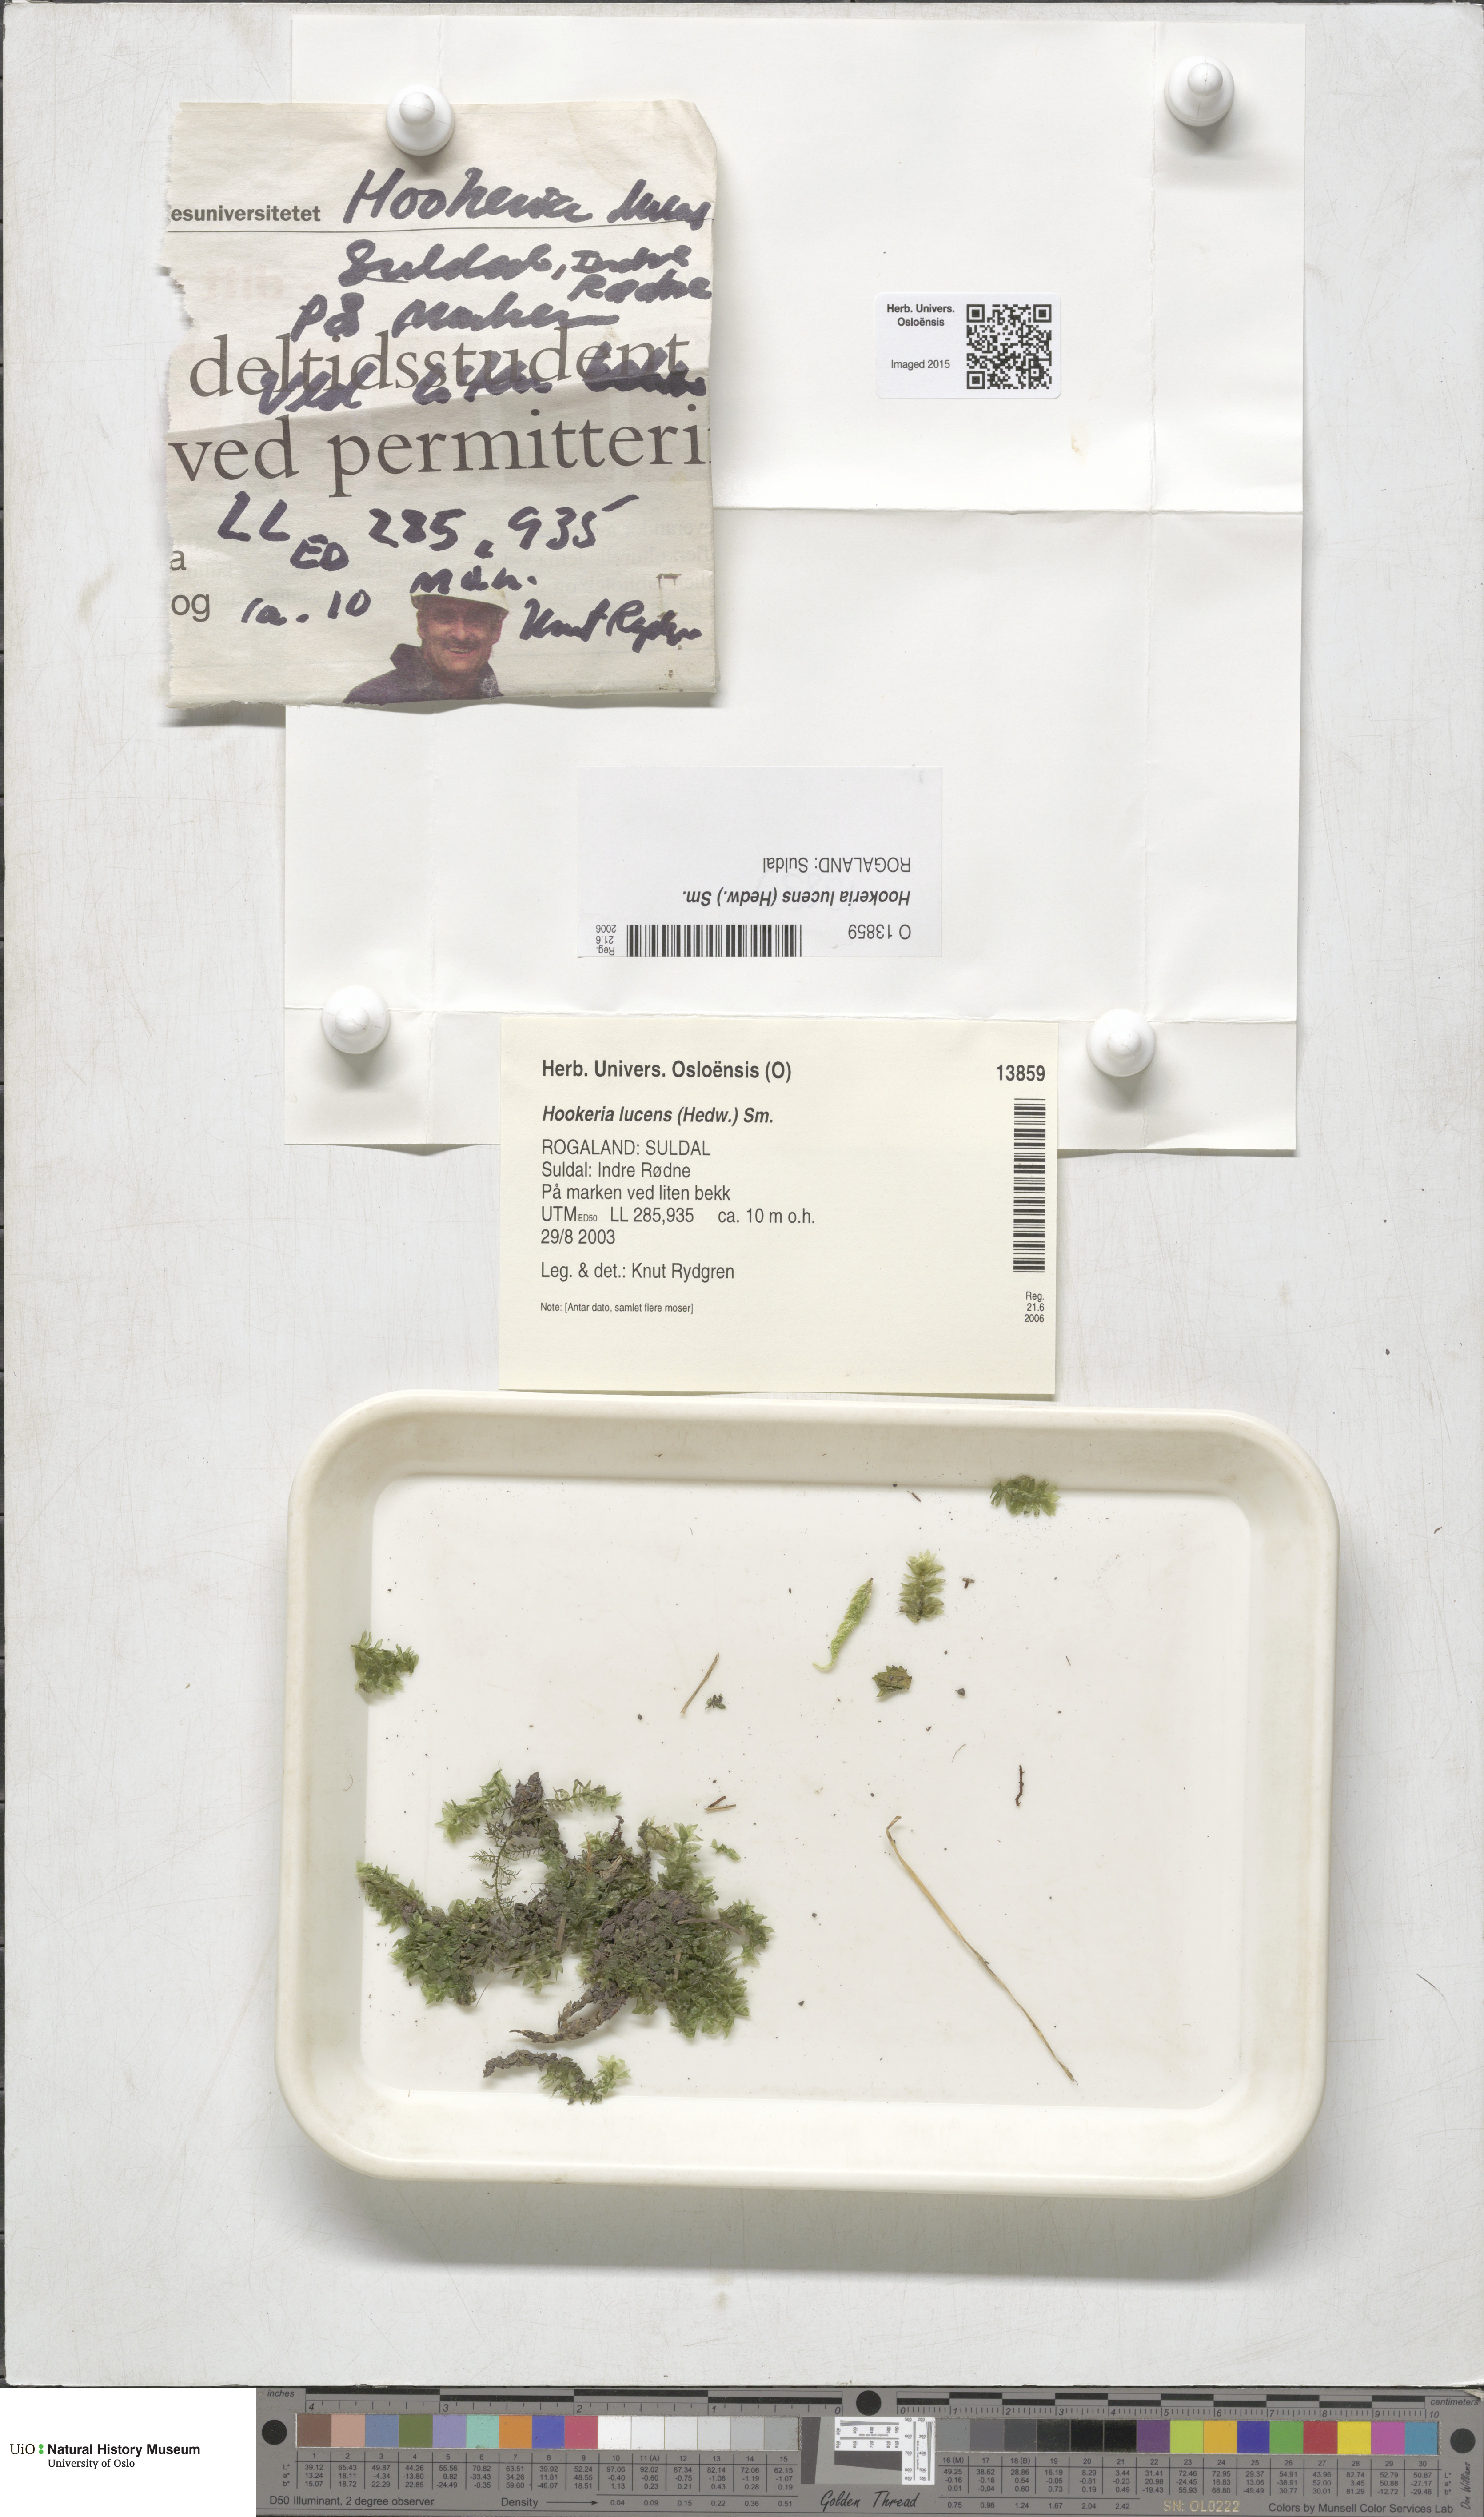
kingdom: Plantae
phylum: Bryophyta
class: Bryopsida
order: Hookeriales
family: Hookeriaceae
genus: Hookeria
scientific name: Hookeria lucens
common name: Shining hookeria
